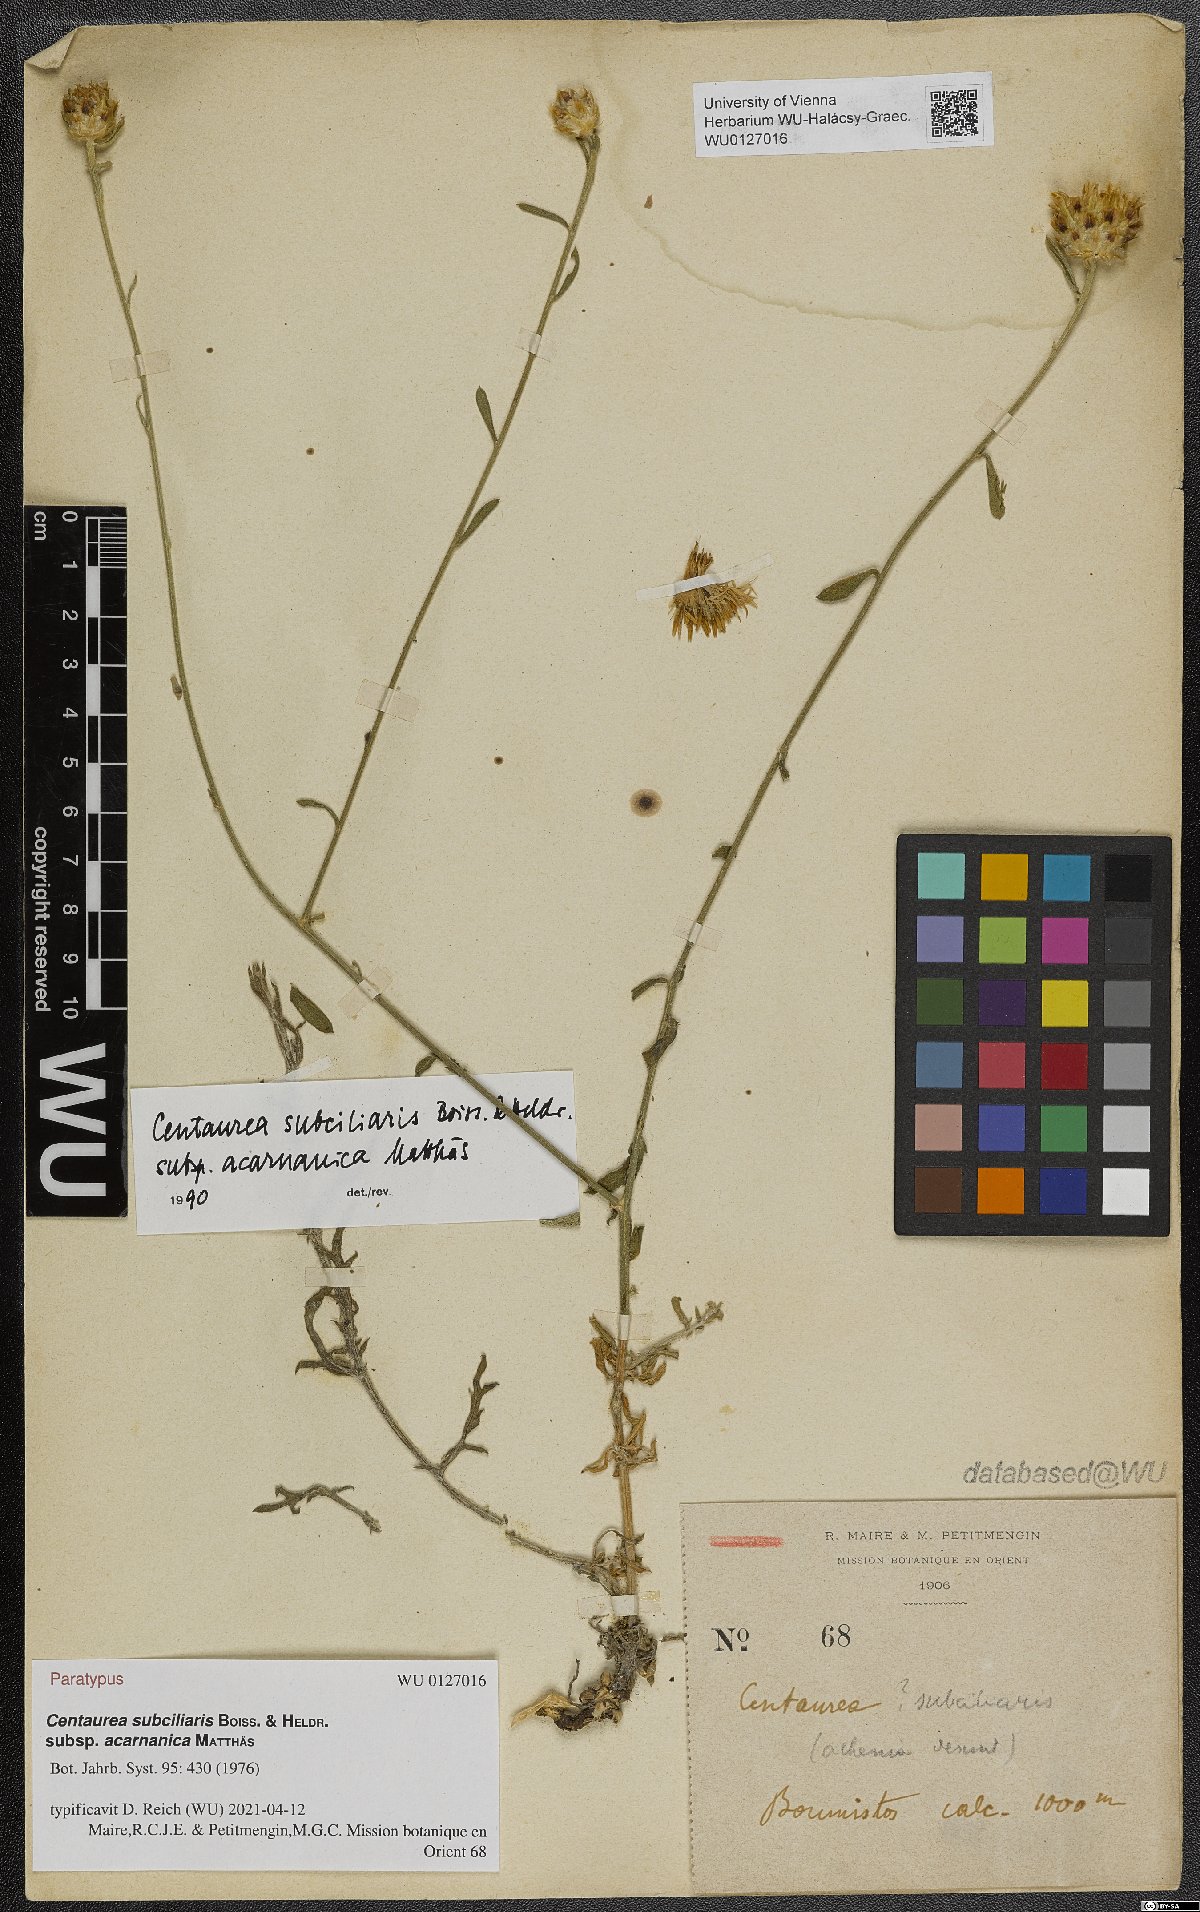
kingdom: Plantae
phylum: Tracheophyta
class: Magnoliopsida
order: Asterales
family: Asteraceae
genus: Centaurea
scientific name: Centaurea acarnanica
